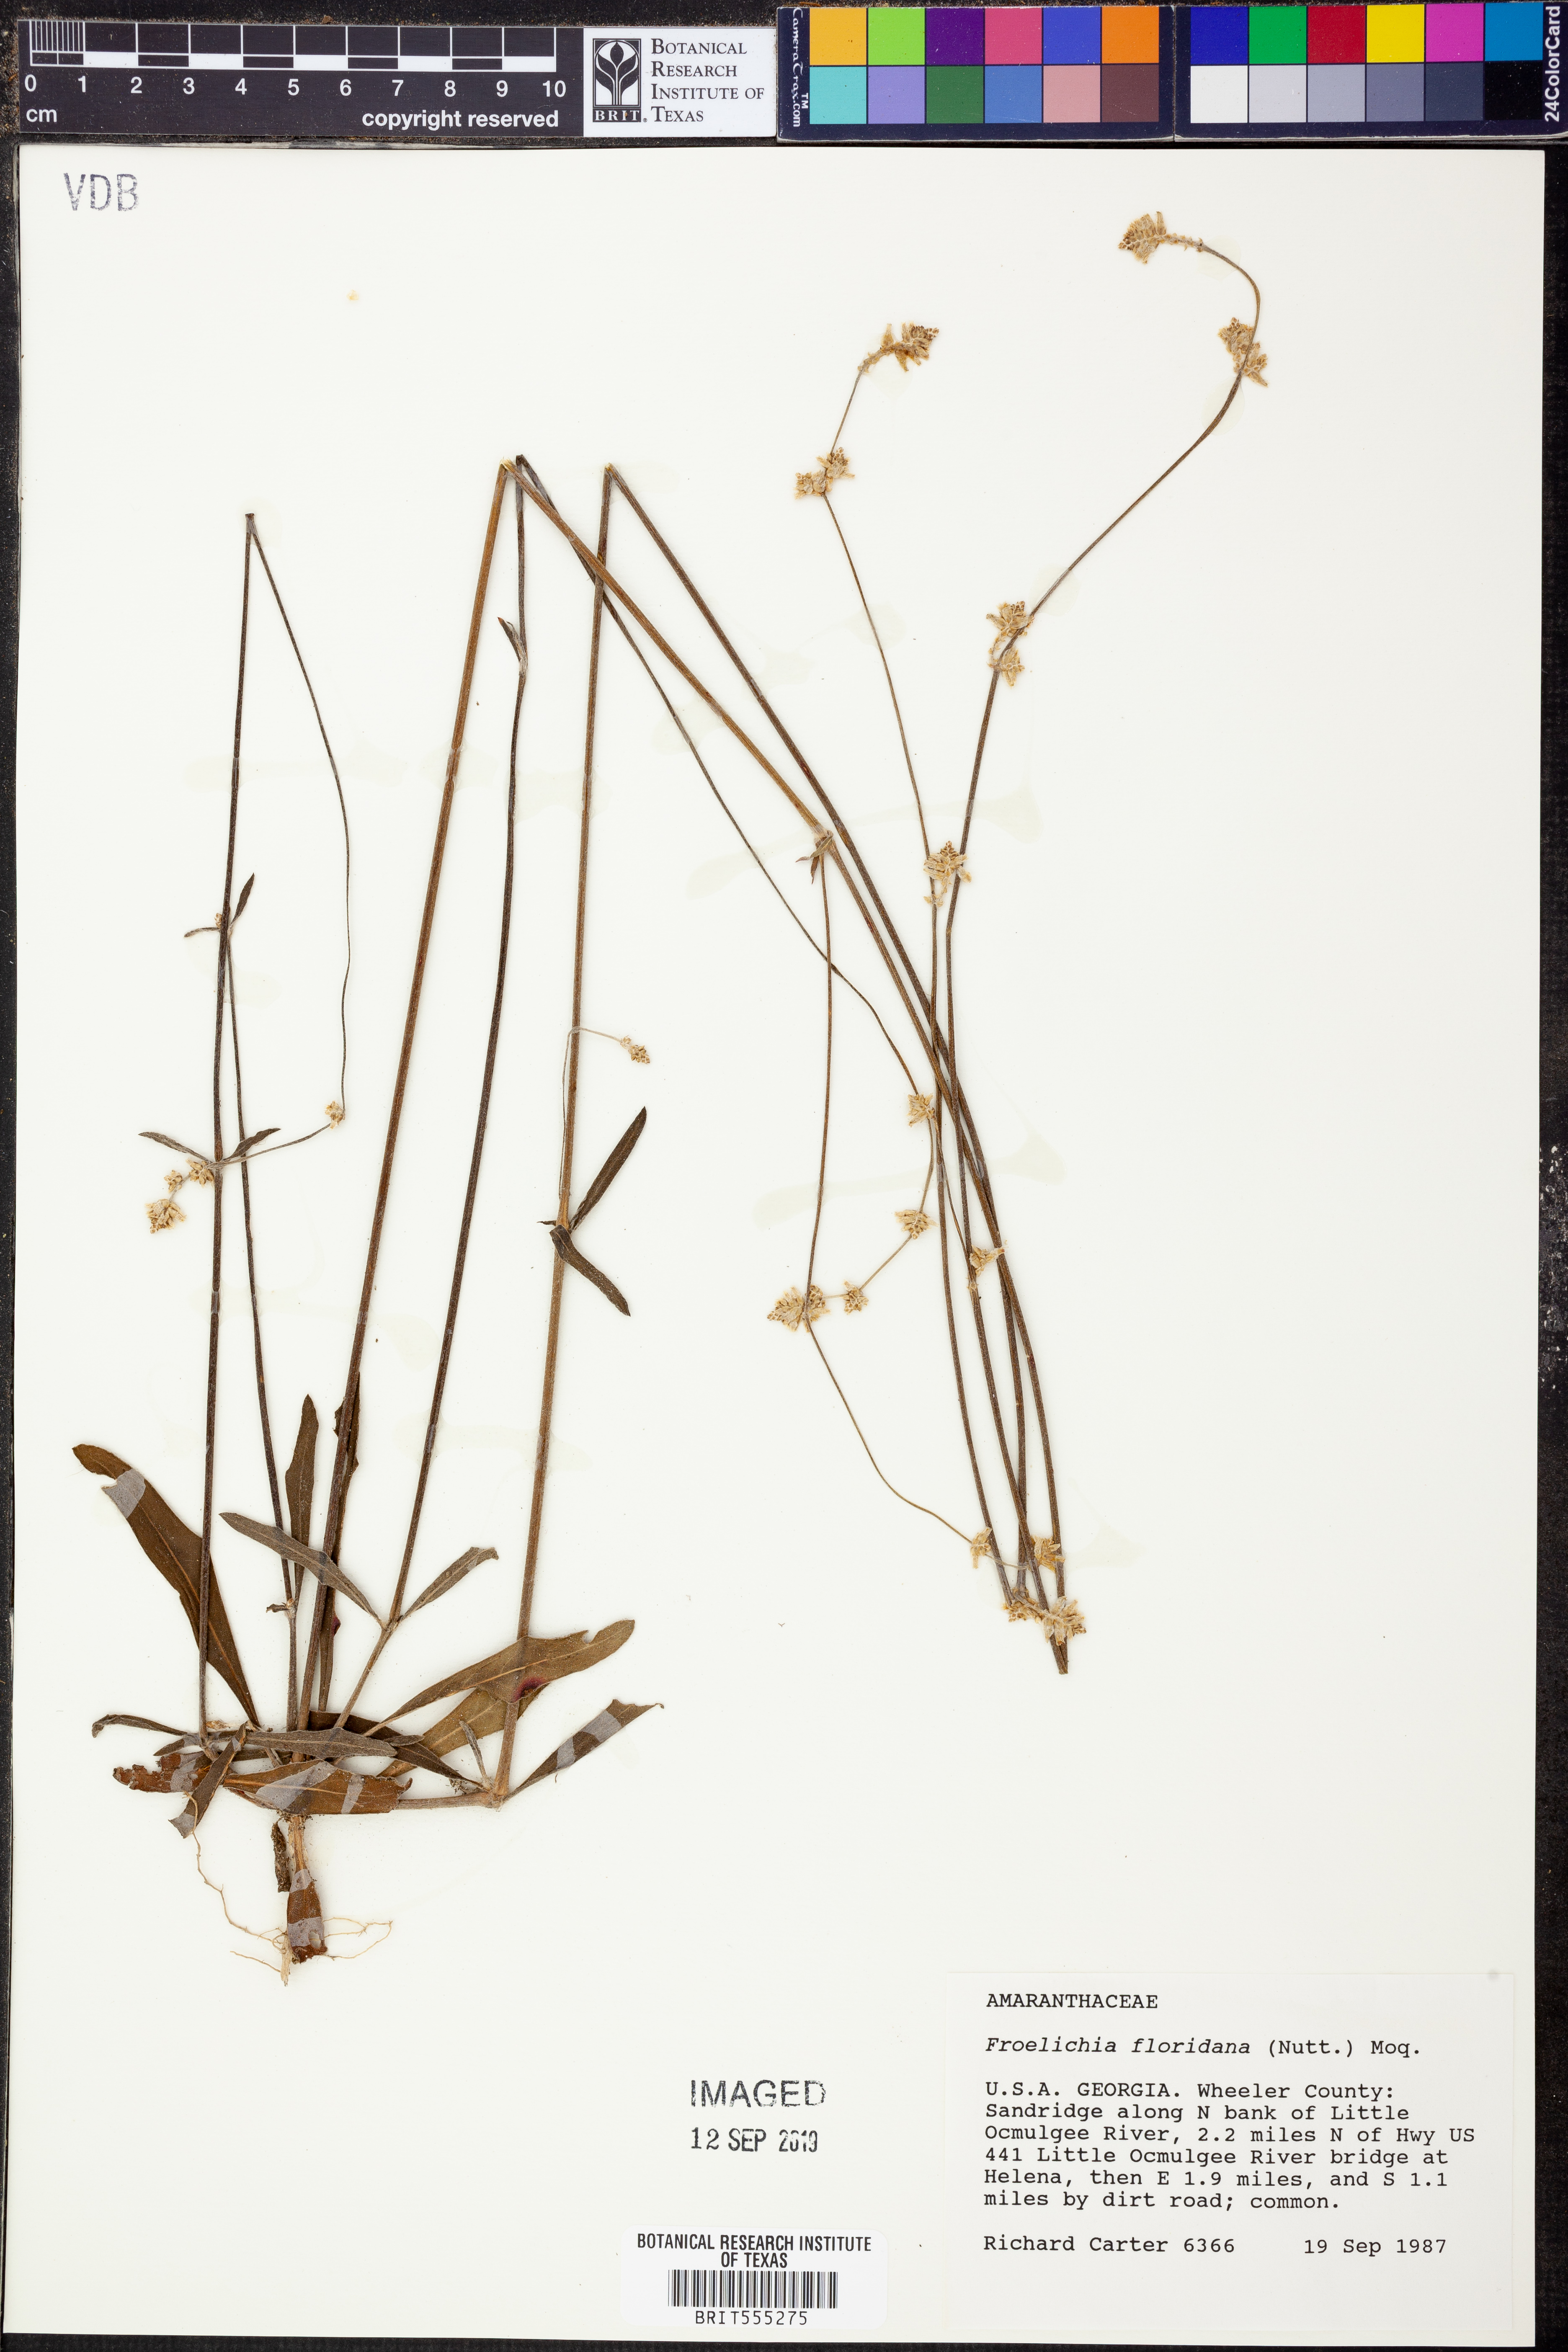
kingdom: Plantae
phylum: Tracheophyta
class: Magnoliopsida
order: Caryophyllales
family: Amaranthaceae
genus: Froelichia
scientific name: Froelichia floridana
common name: Florida snake-cotton
